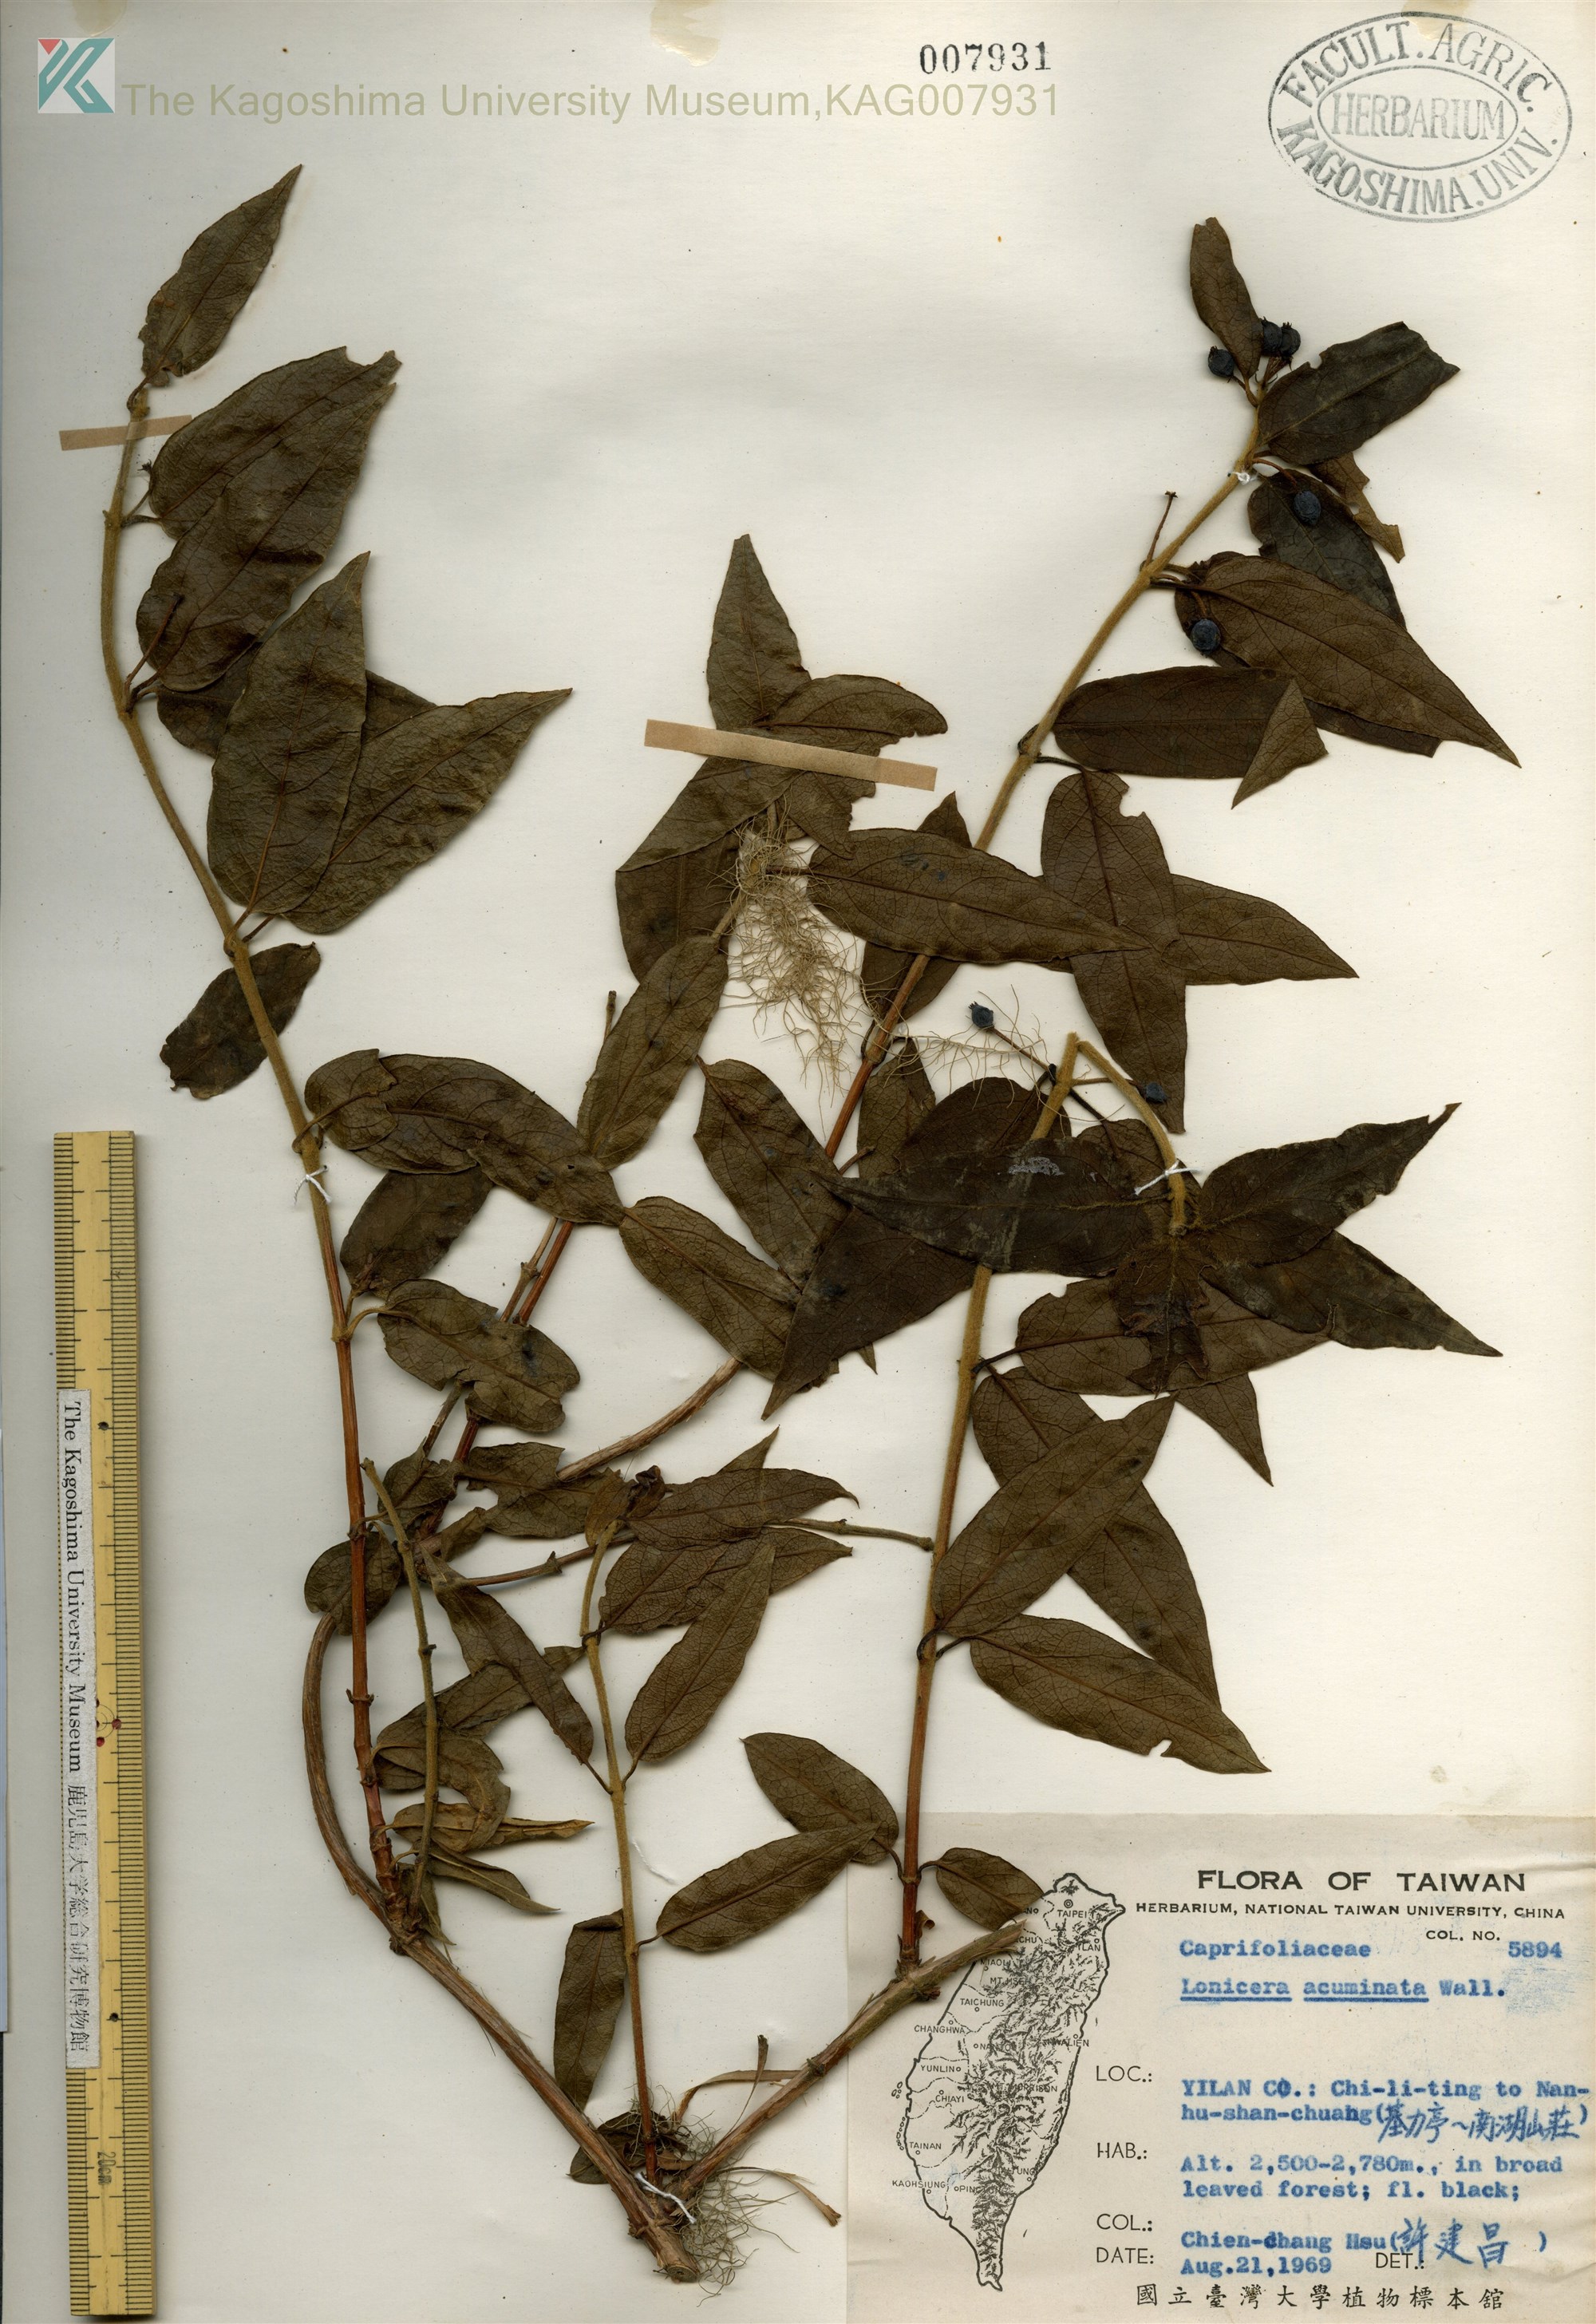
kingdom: Plantae
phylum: Tracheophyta
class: Magnoliopsida
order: Dipsacales
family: Caprifoliaceae
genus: Lonicera
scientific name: Lonicera acuminata
